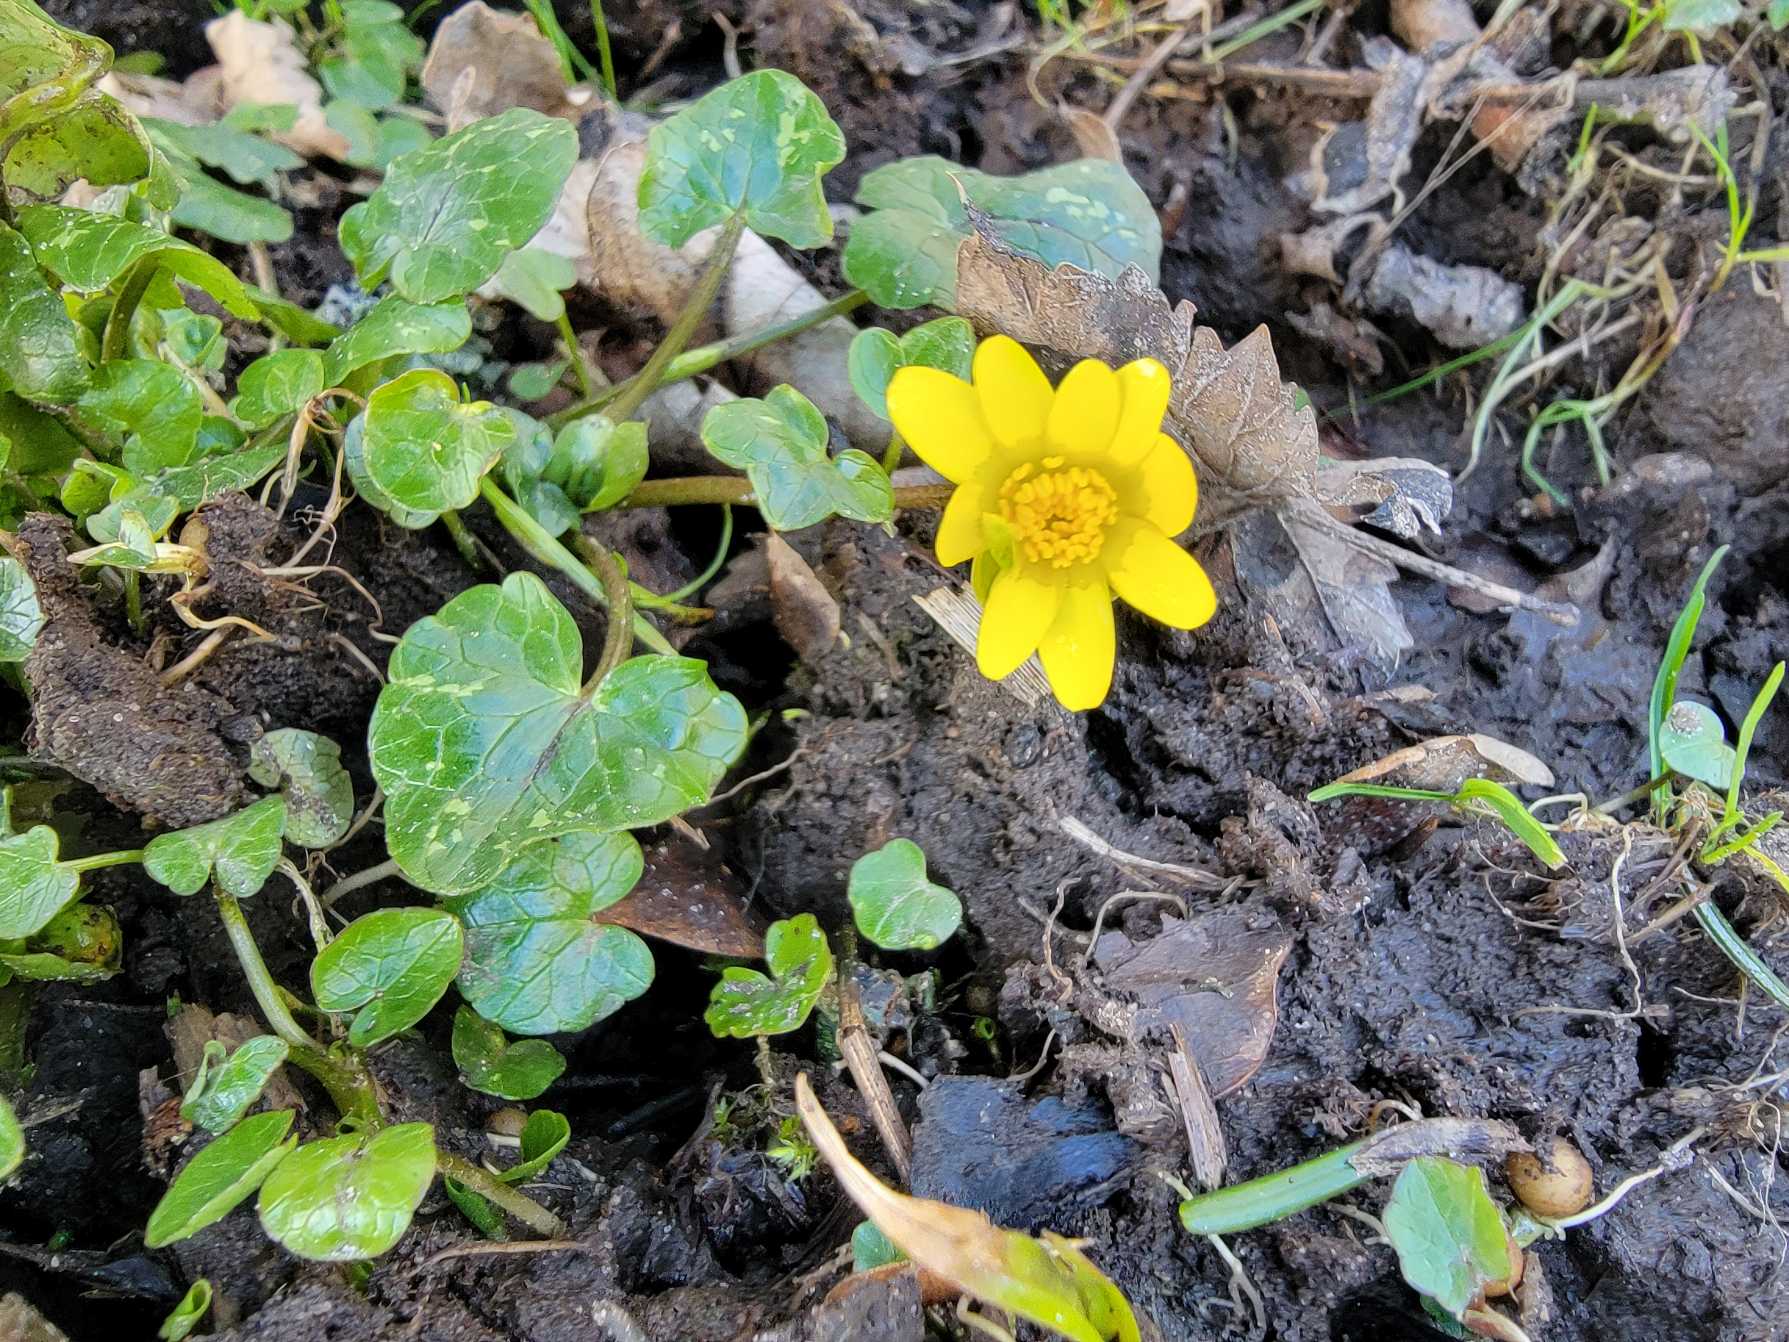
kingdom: Plantae
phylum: Tracheophyta
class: Magnoliopsida
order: Ranunculales
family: Ranunculaceae
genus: Ficaria
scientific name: Ficaria verna
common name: Vorterod
